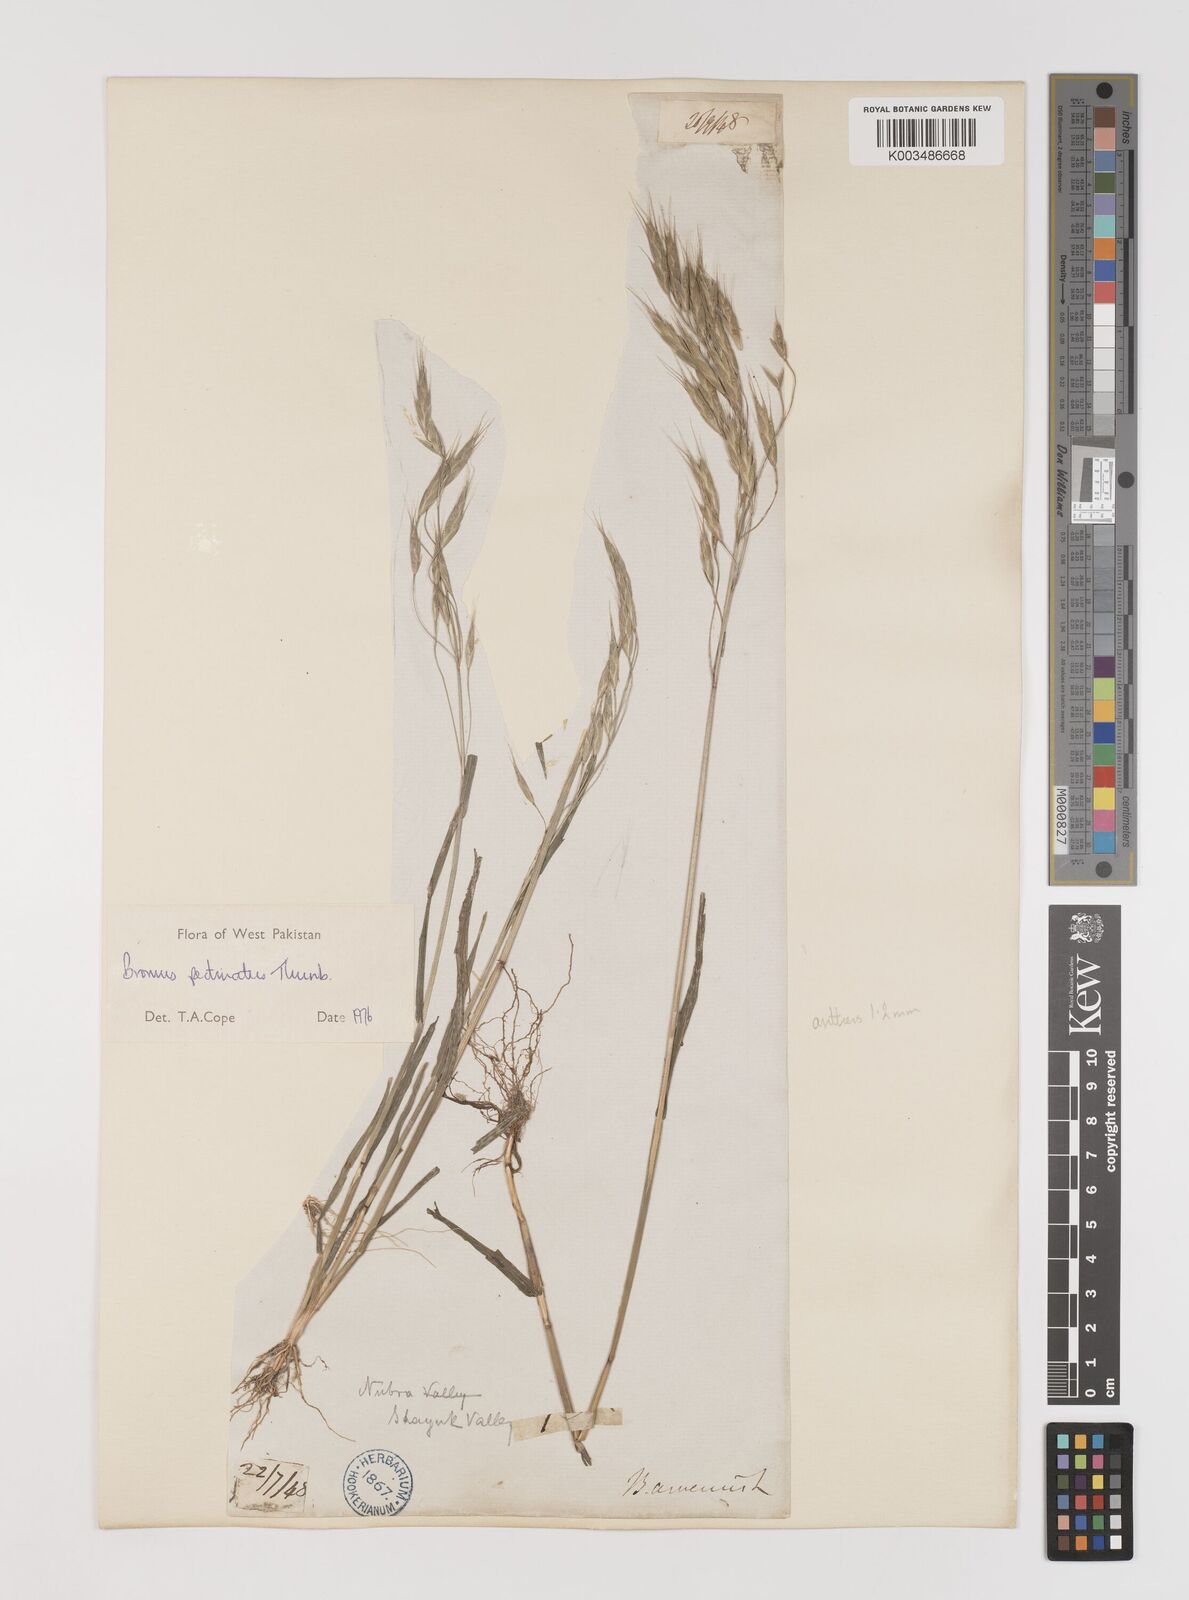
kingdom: Plantae
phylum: Tracheophyta
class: Liliopsida
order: Poales
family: Poaceae
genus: Bromus
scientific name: Bromus pectinatus
